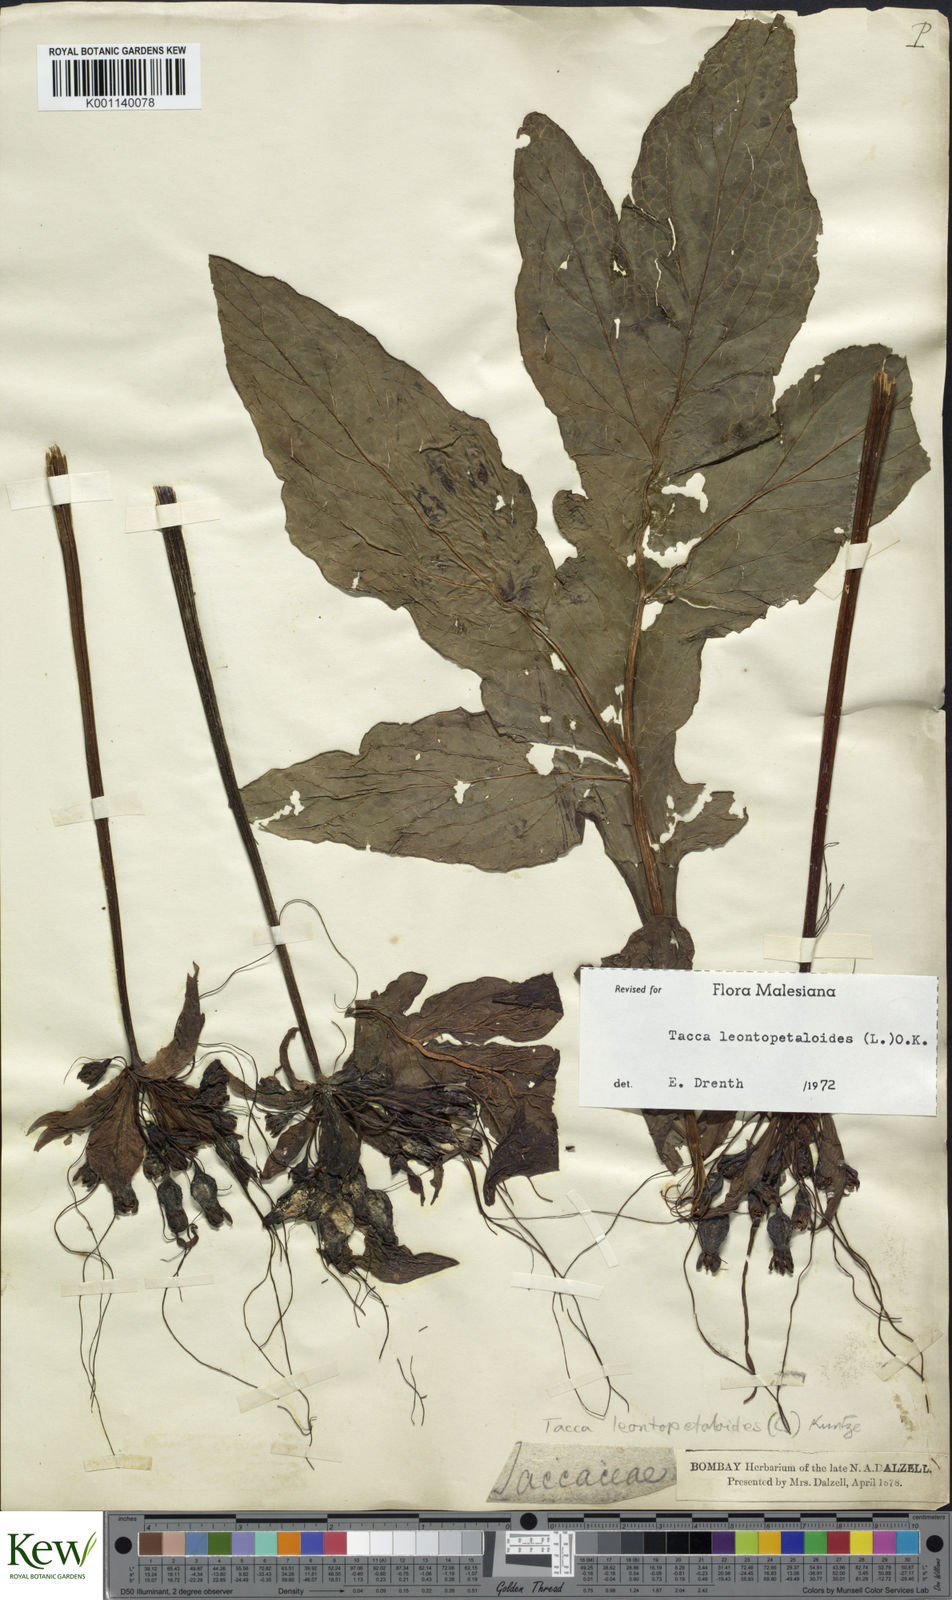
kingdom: Plantae
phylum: Tracheophyta
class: Liliopsida
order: Dioscoreales
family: Dioscoreaceae
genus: Tacca
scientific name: Tacca leontopetaloides
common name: Arrowroot
